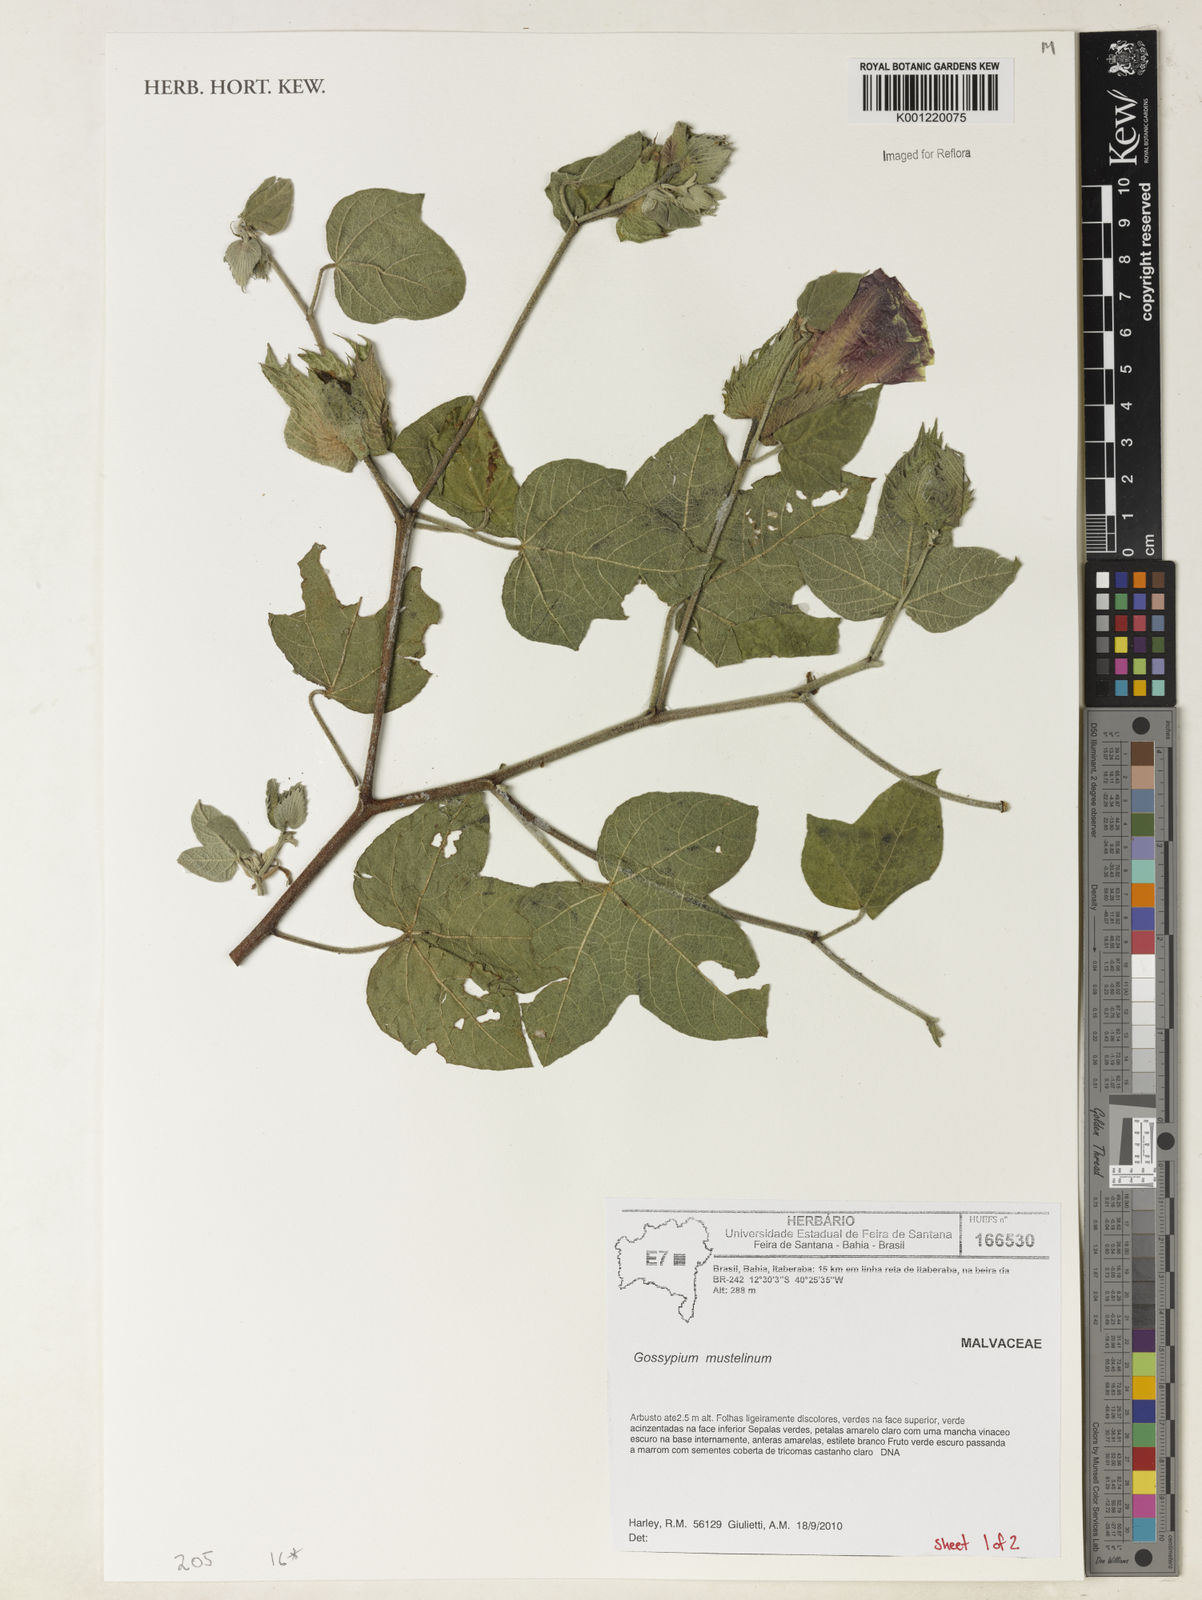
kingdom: Plantae
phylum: Tracheophyta
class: Magnoliopsida
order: Malvales
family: Malvaceae
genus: Gossypium
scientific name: Gossypium
